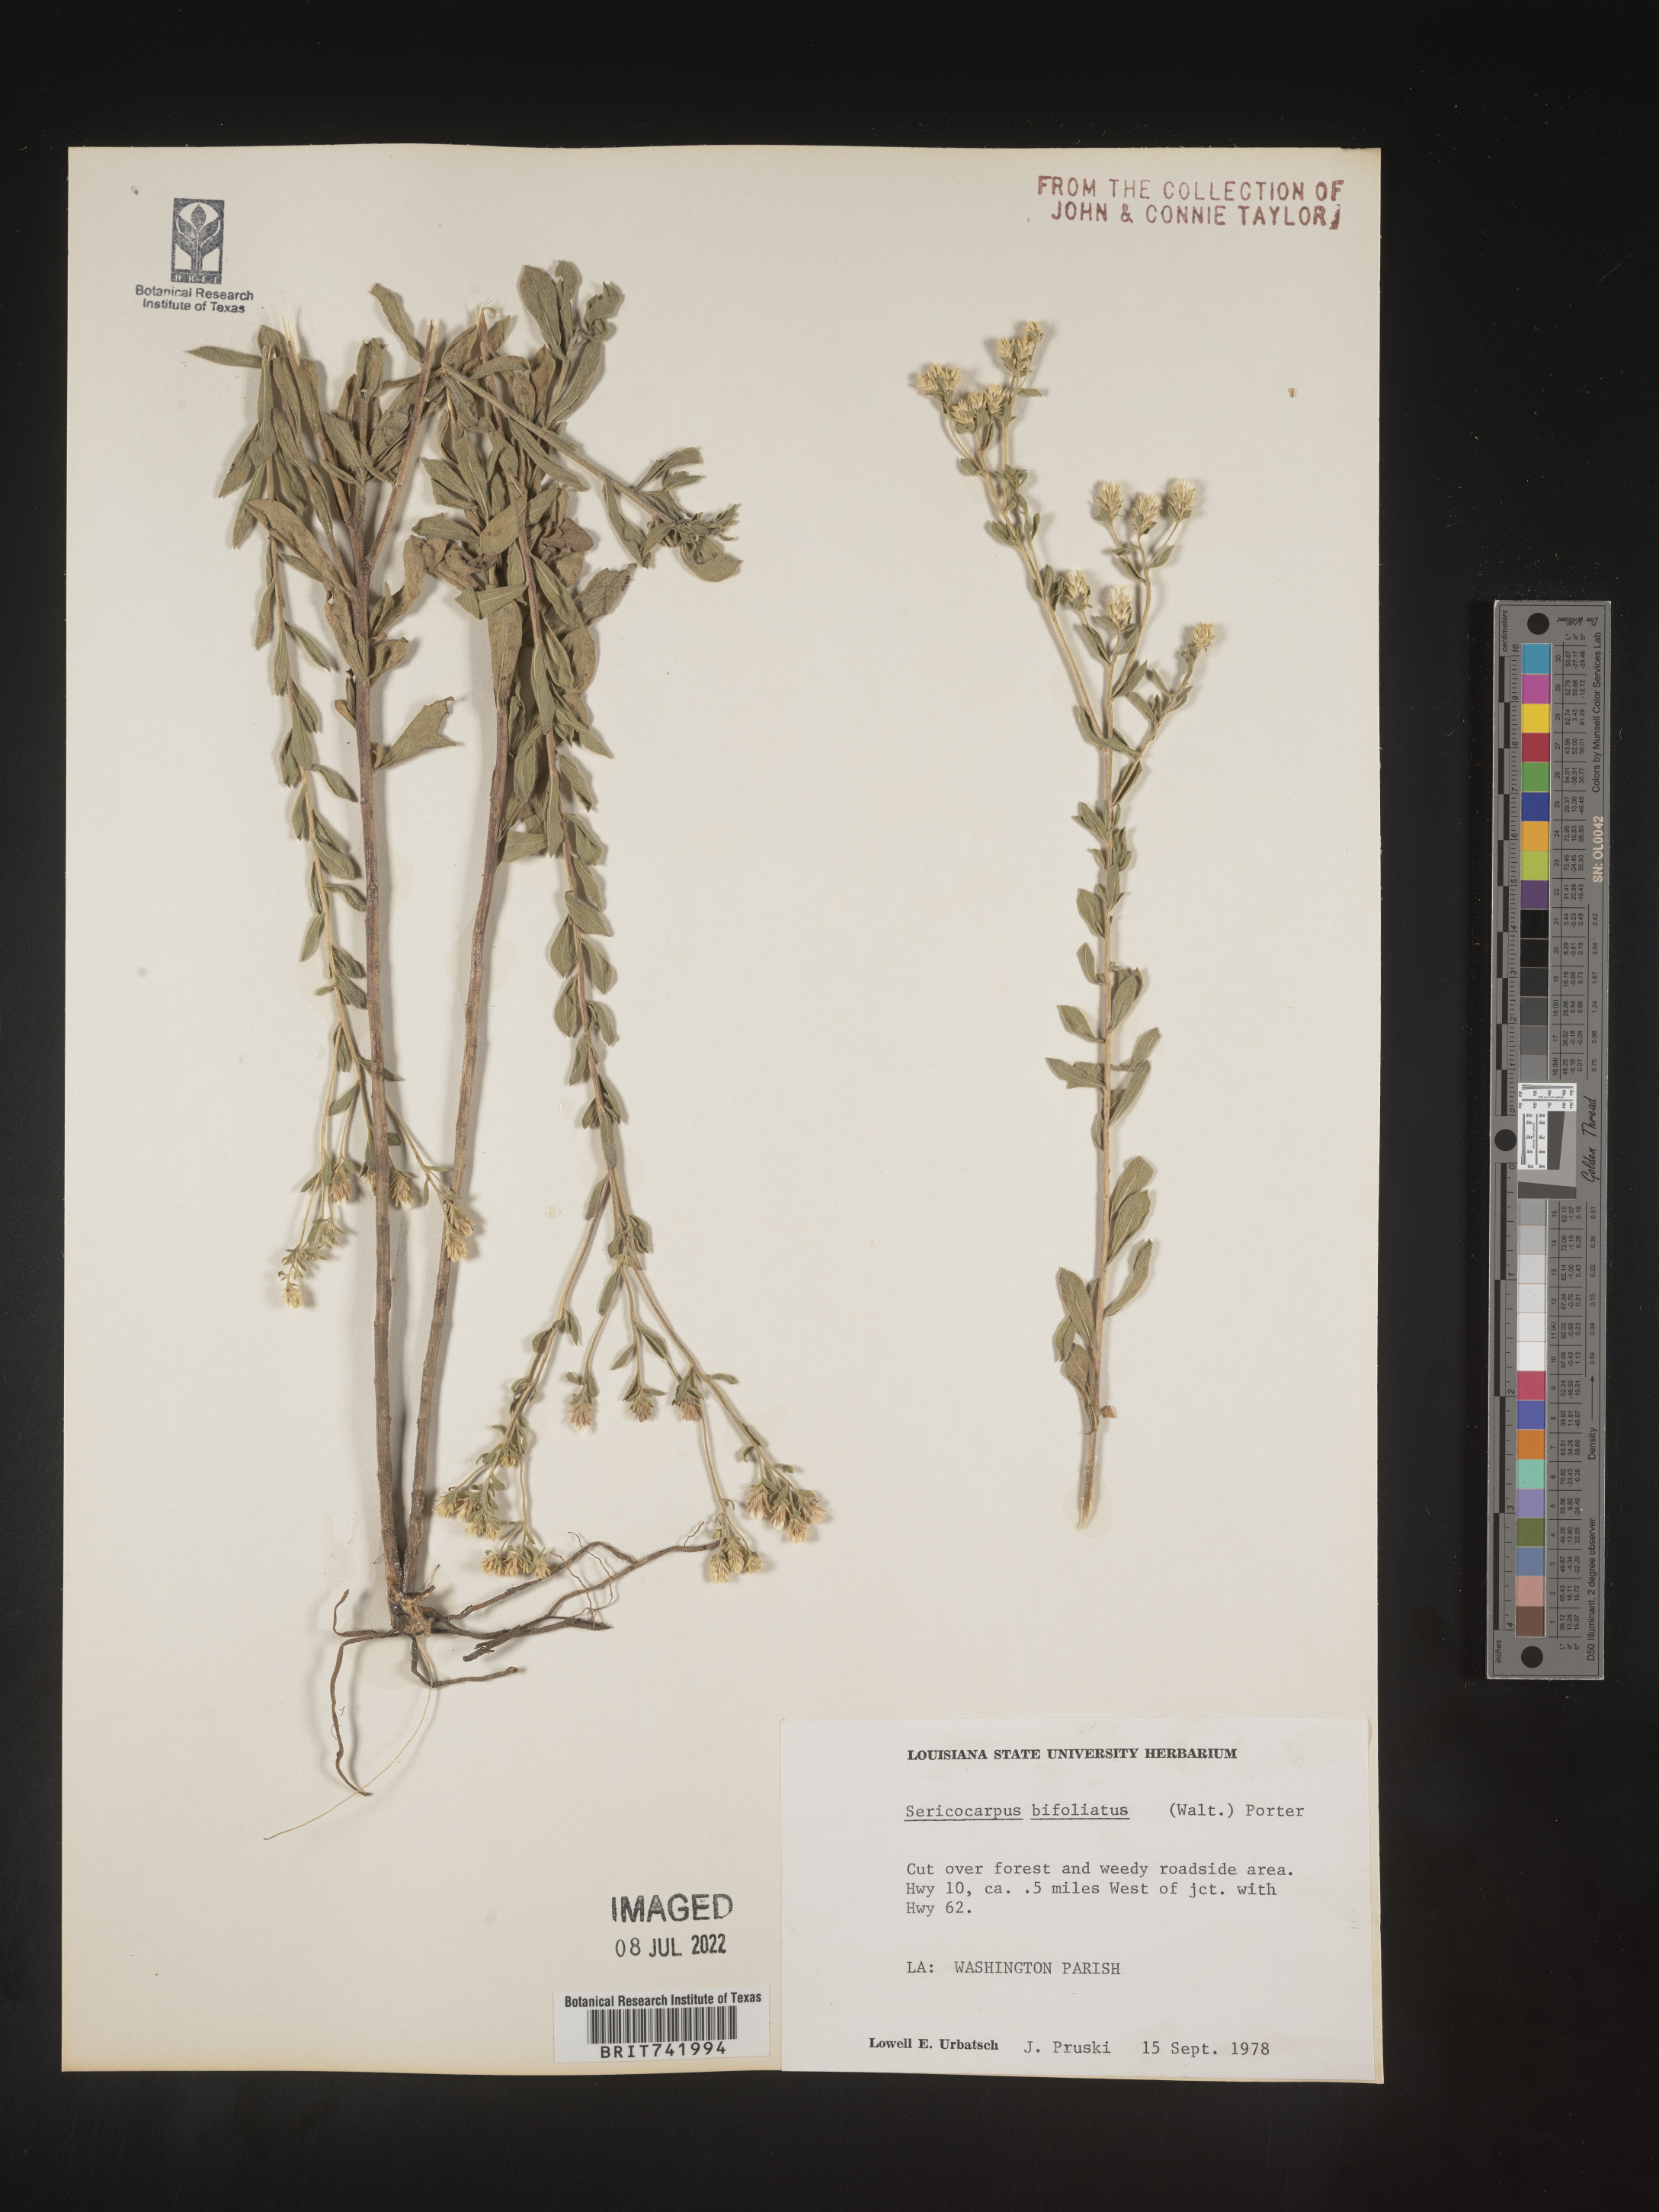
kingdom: Plantae
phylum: Tracheophyta
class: Magnoliopsida
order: Asterales
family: Asteraceae
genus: Sericocarpus
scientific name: Sericocarpus tortifolius
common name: Dixie aster
